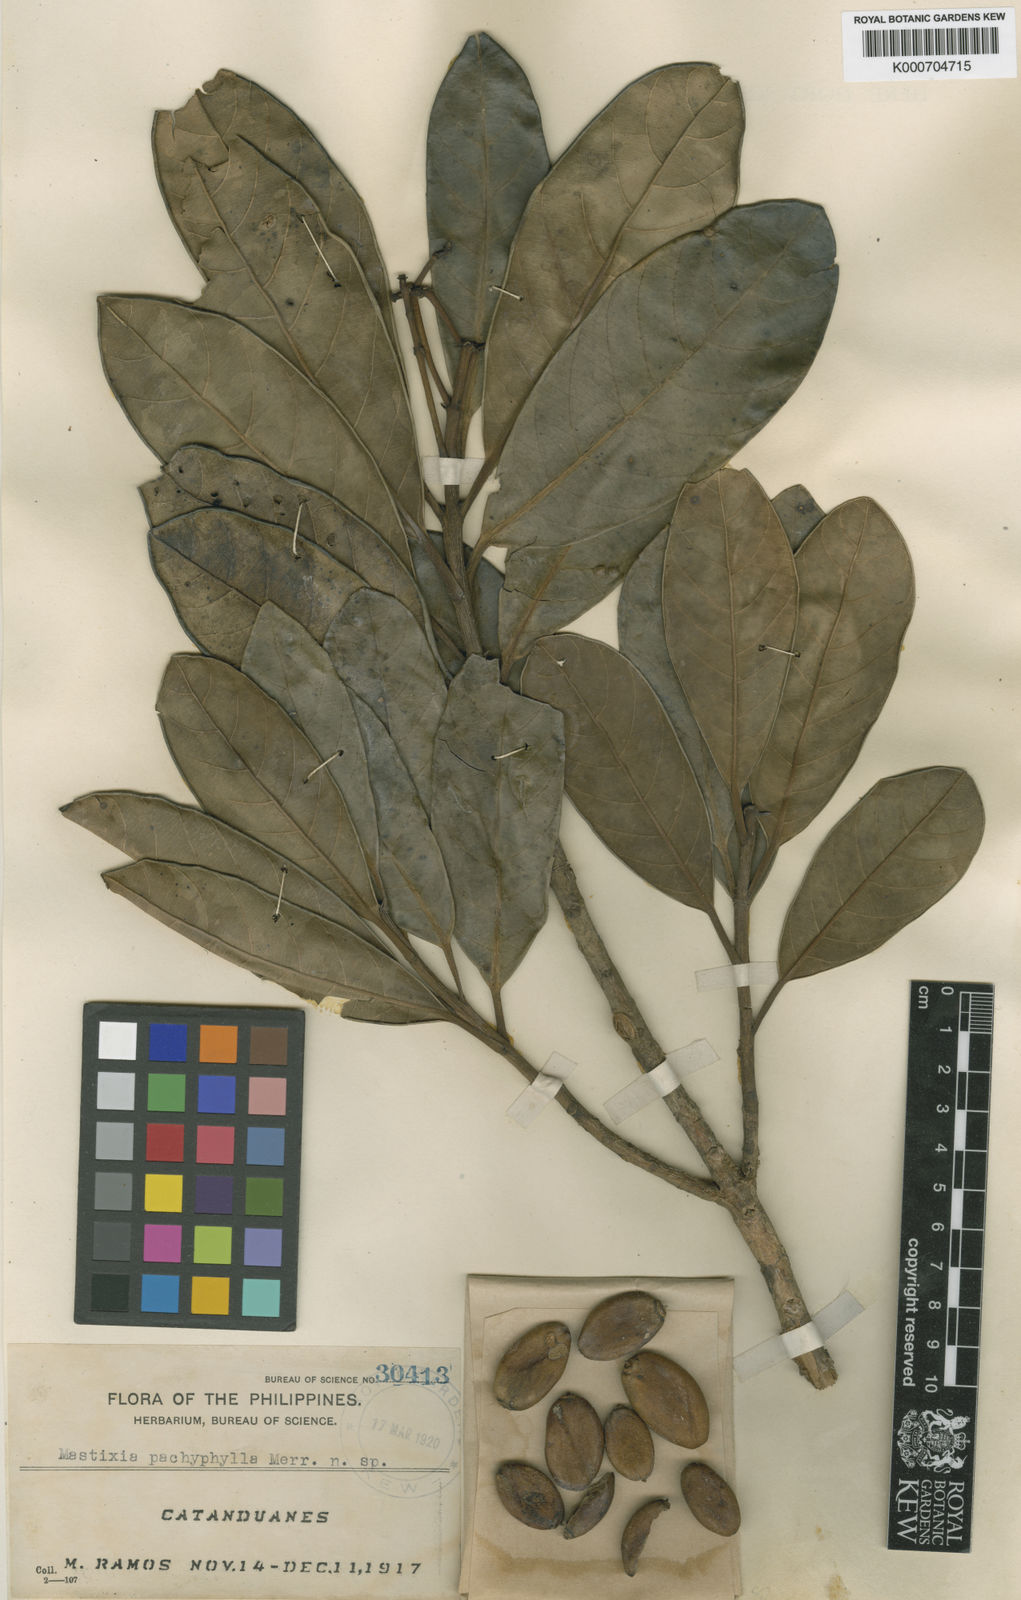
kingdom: Plantae
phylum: Tracheophyta
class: Magnoliopsida
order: Cornales
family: Nyssaceae
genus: Mastixia
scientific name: Mastixia tetrapetala
